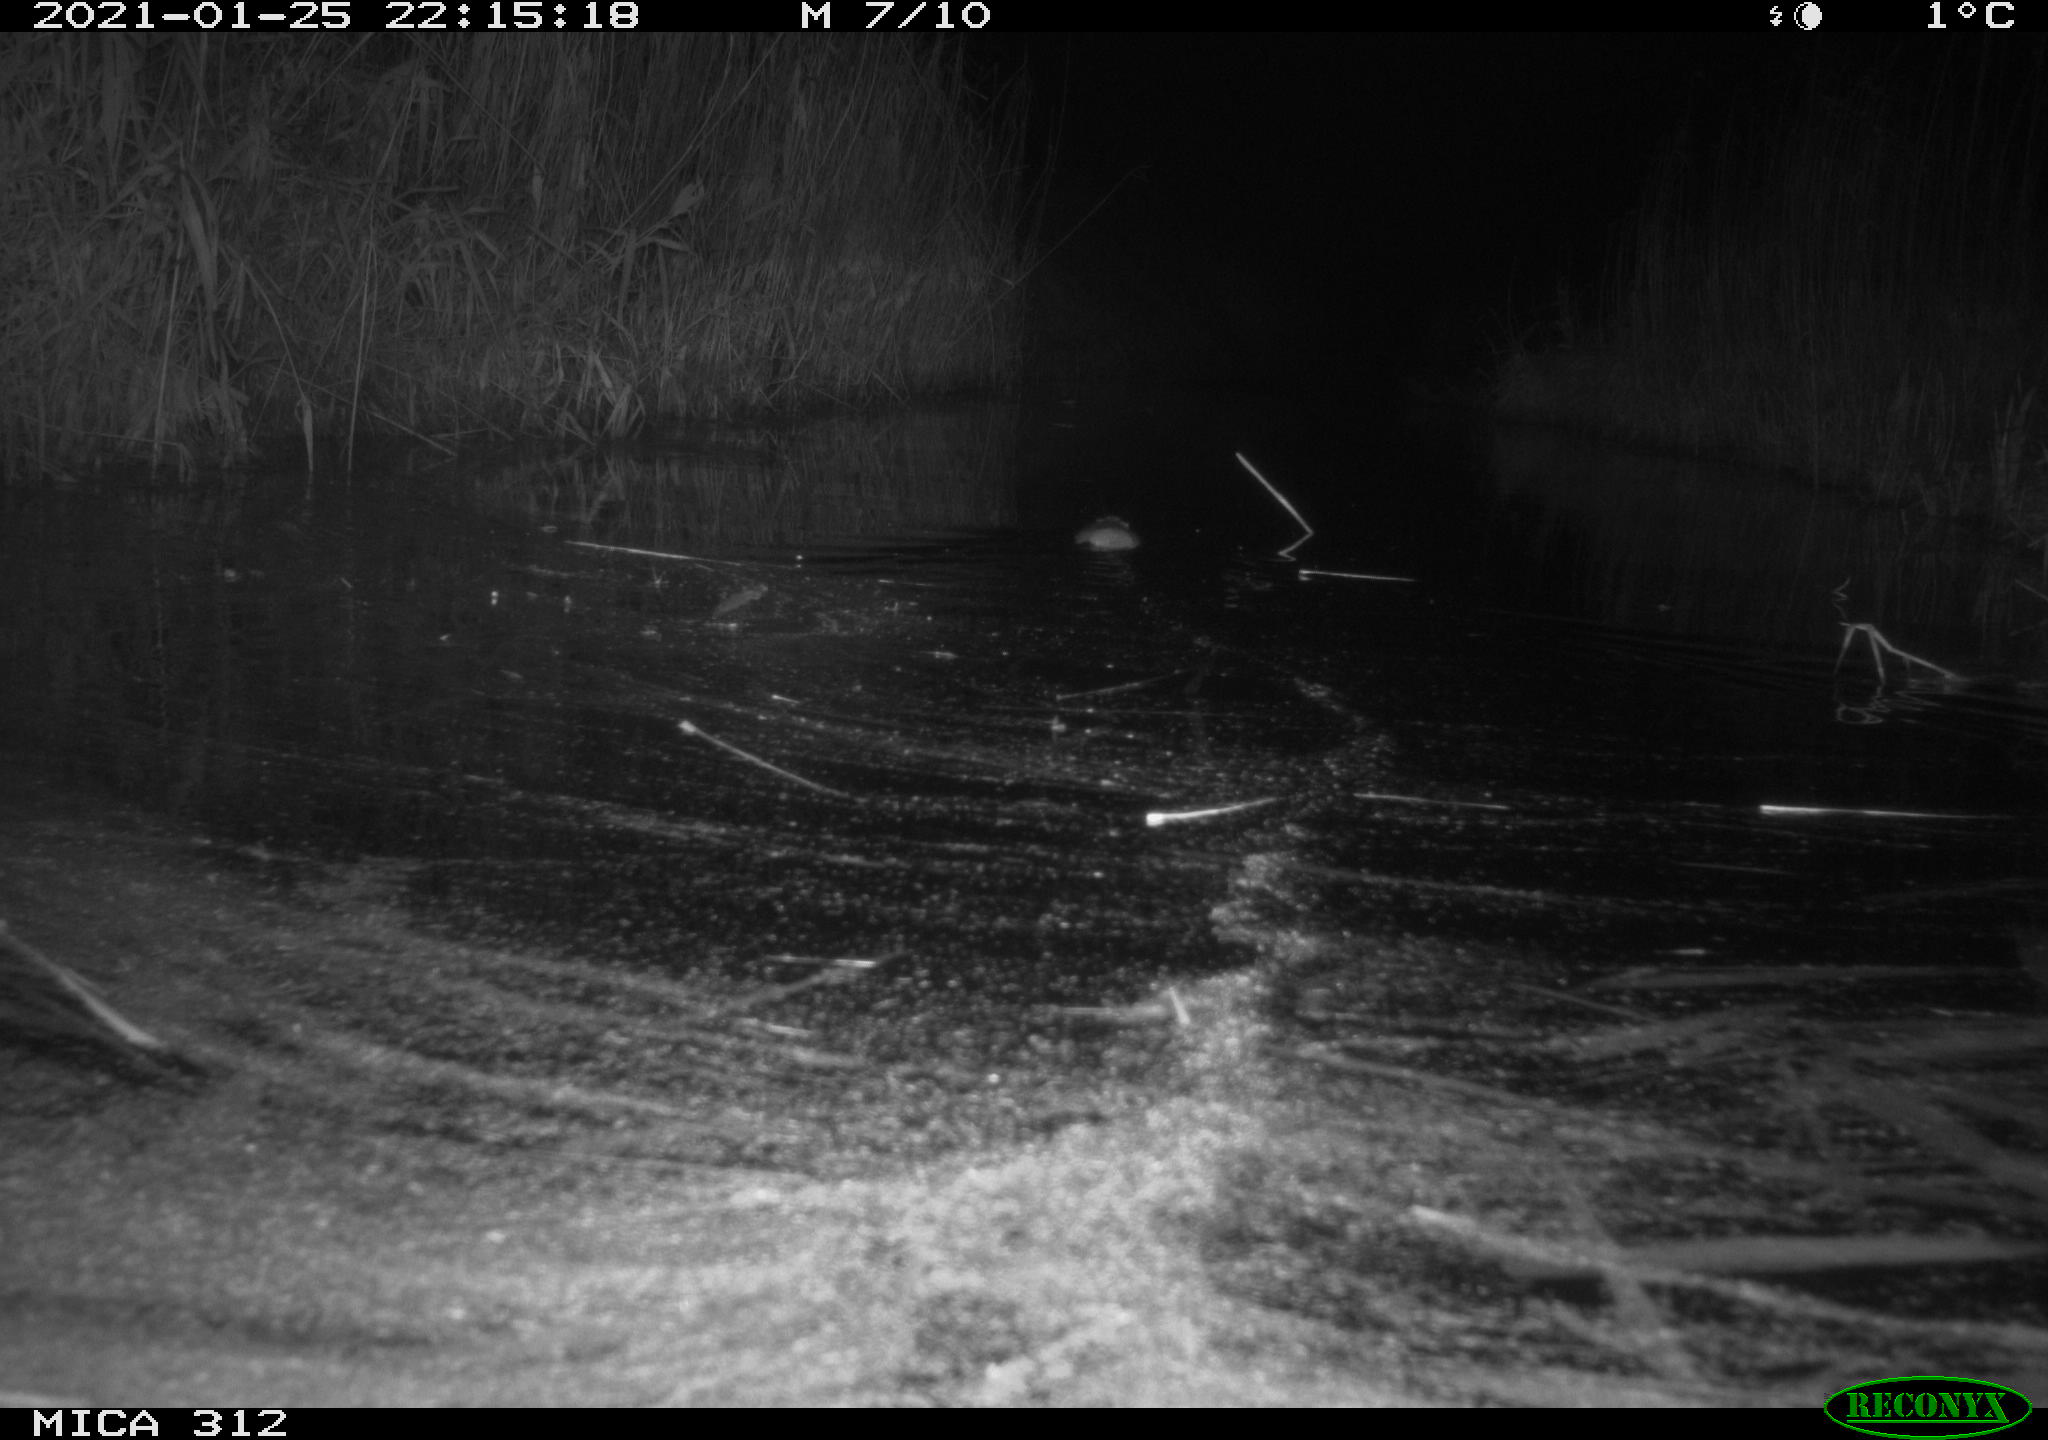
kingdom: Animalia
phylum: Chordata
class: Mammalia
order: Rodentia
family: Muridae
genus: Rattus
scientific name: Rattus norvegicus
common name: Brown rat
